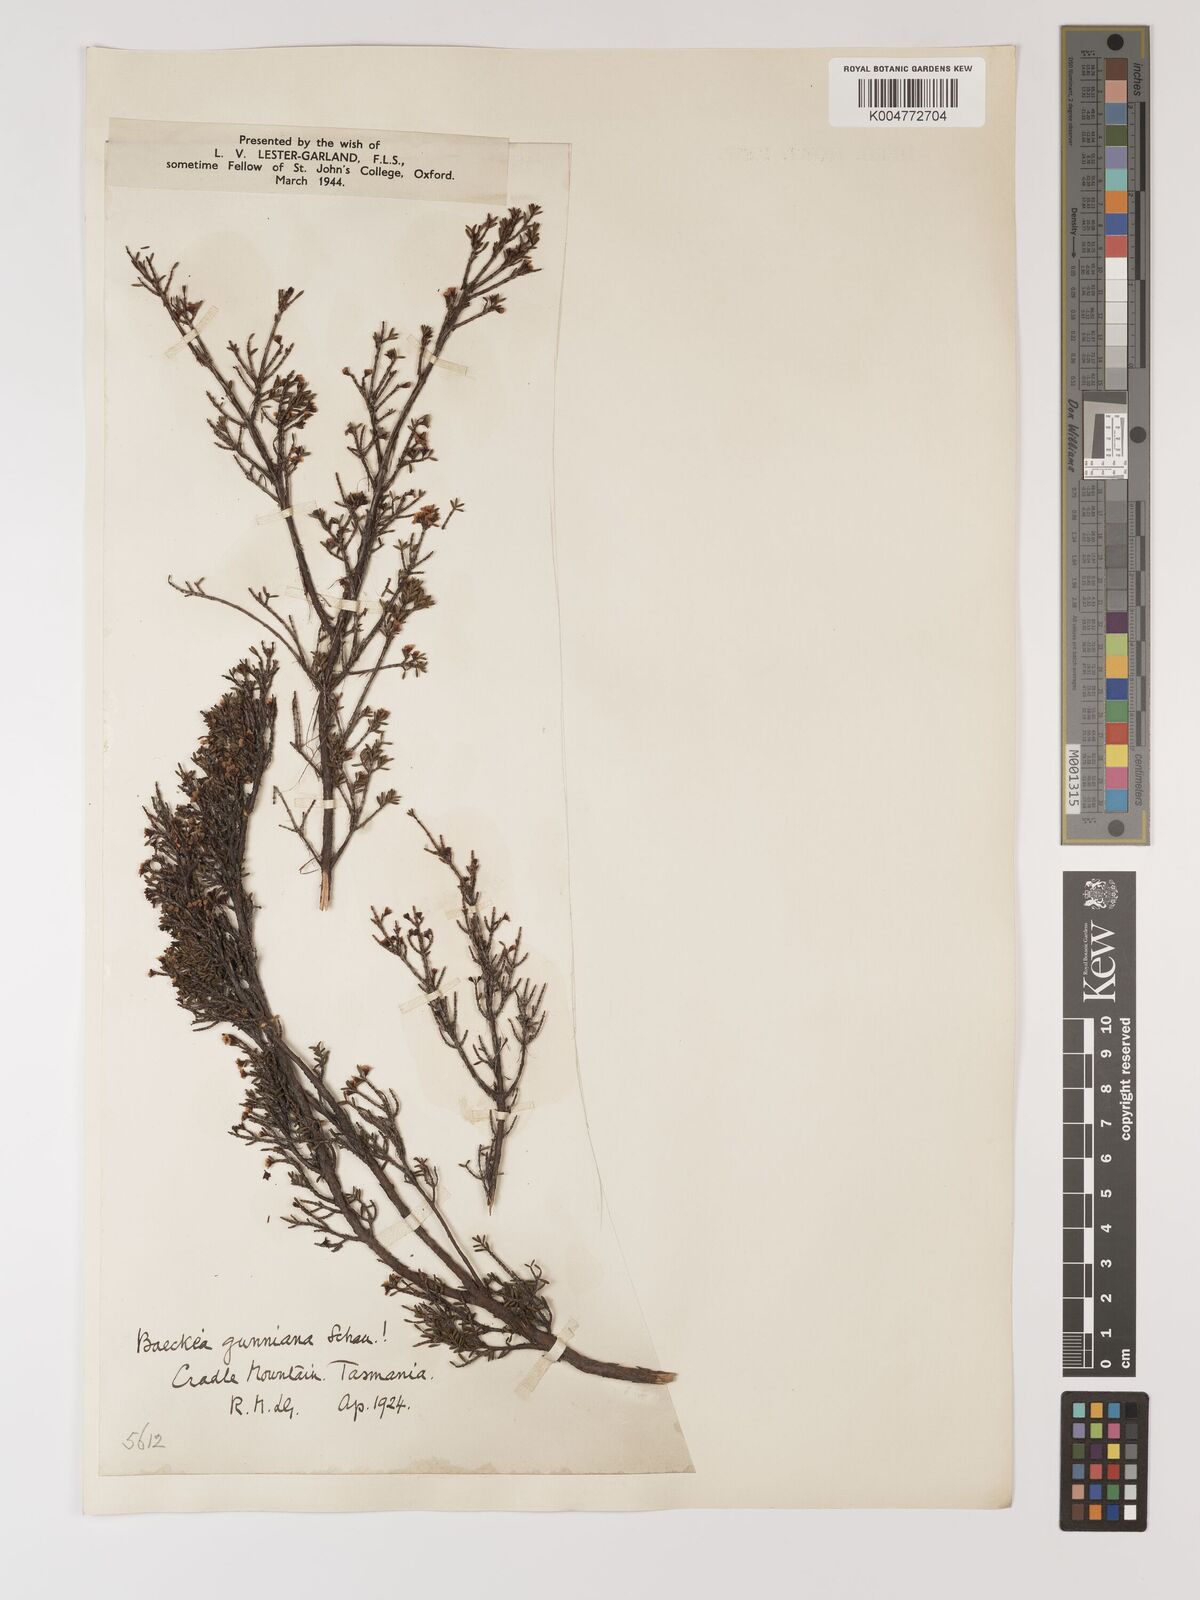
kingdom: Plantae
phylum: Tracheophyta
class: Magnoliopsida
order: Myrtales
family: Myrtaceae
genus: Baeckea
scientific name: Baeckea gunniana
